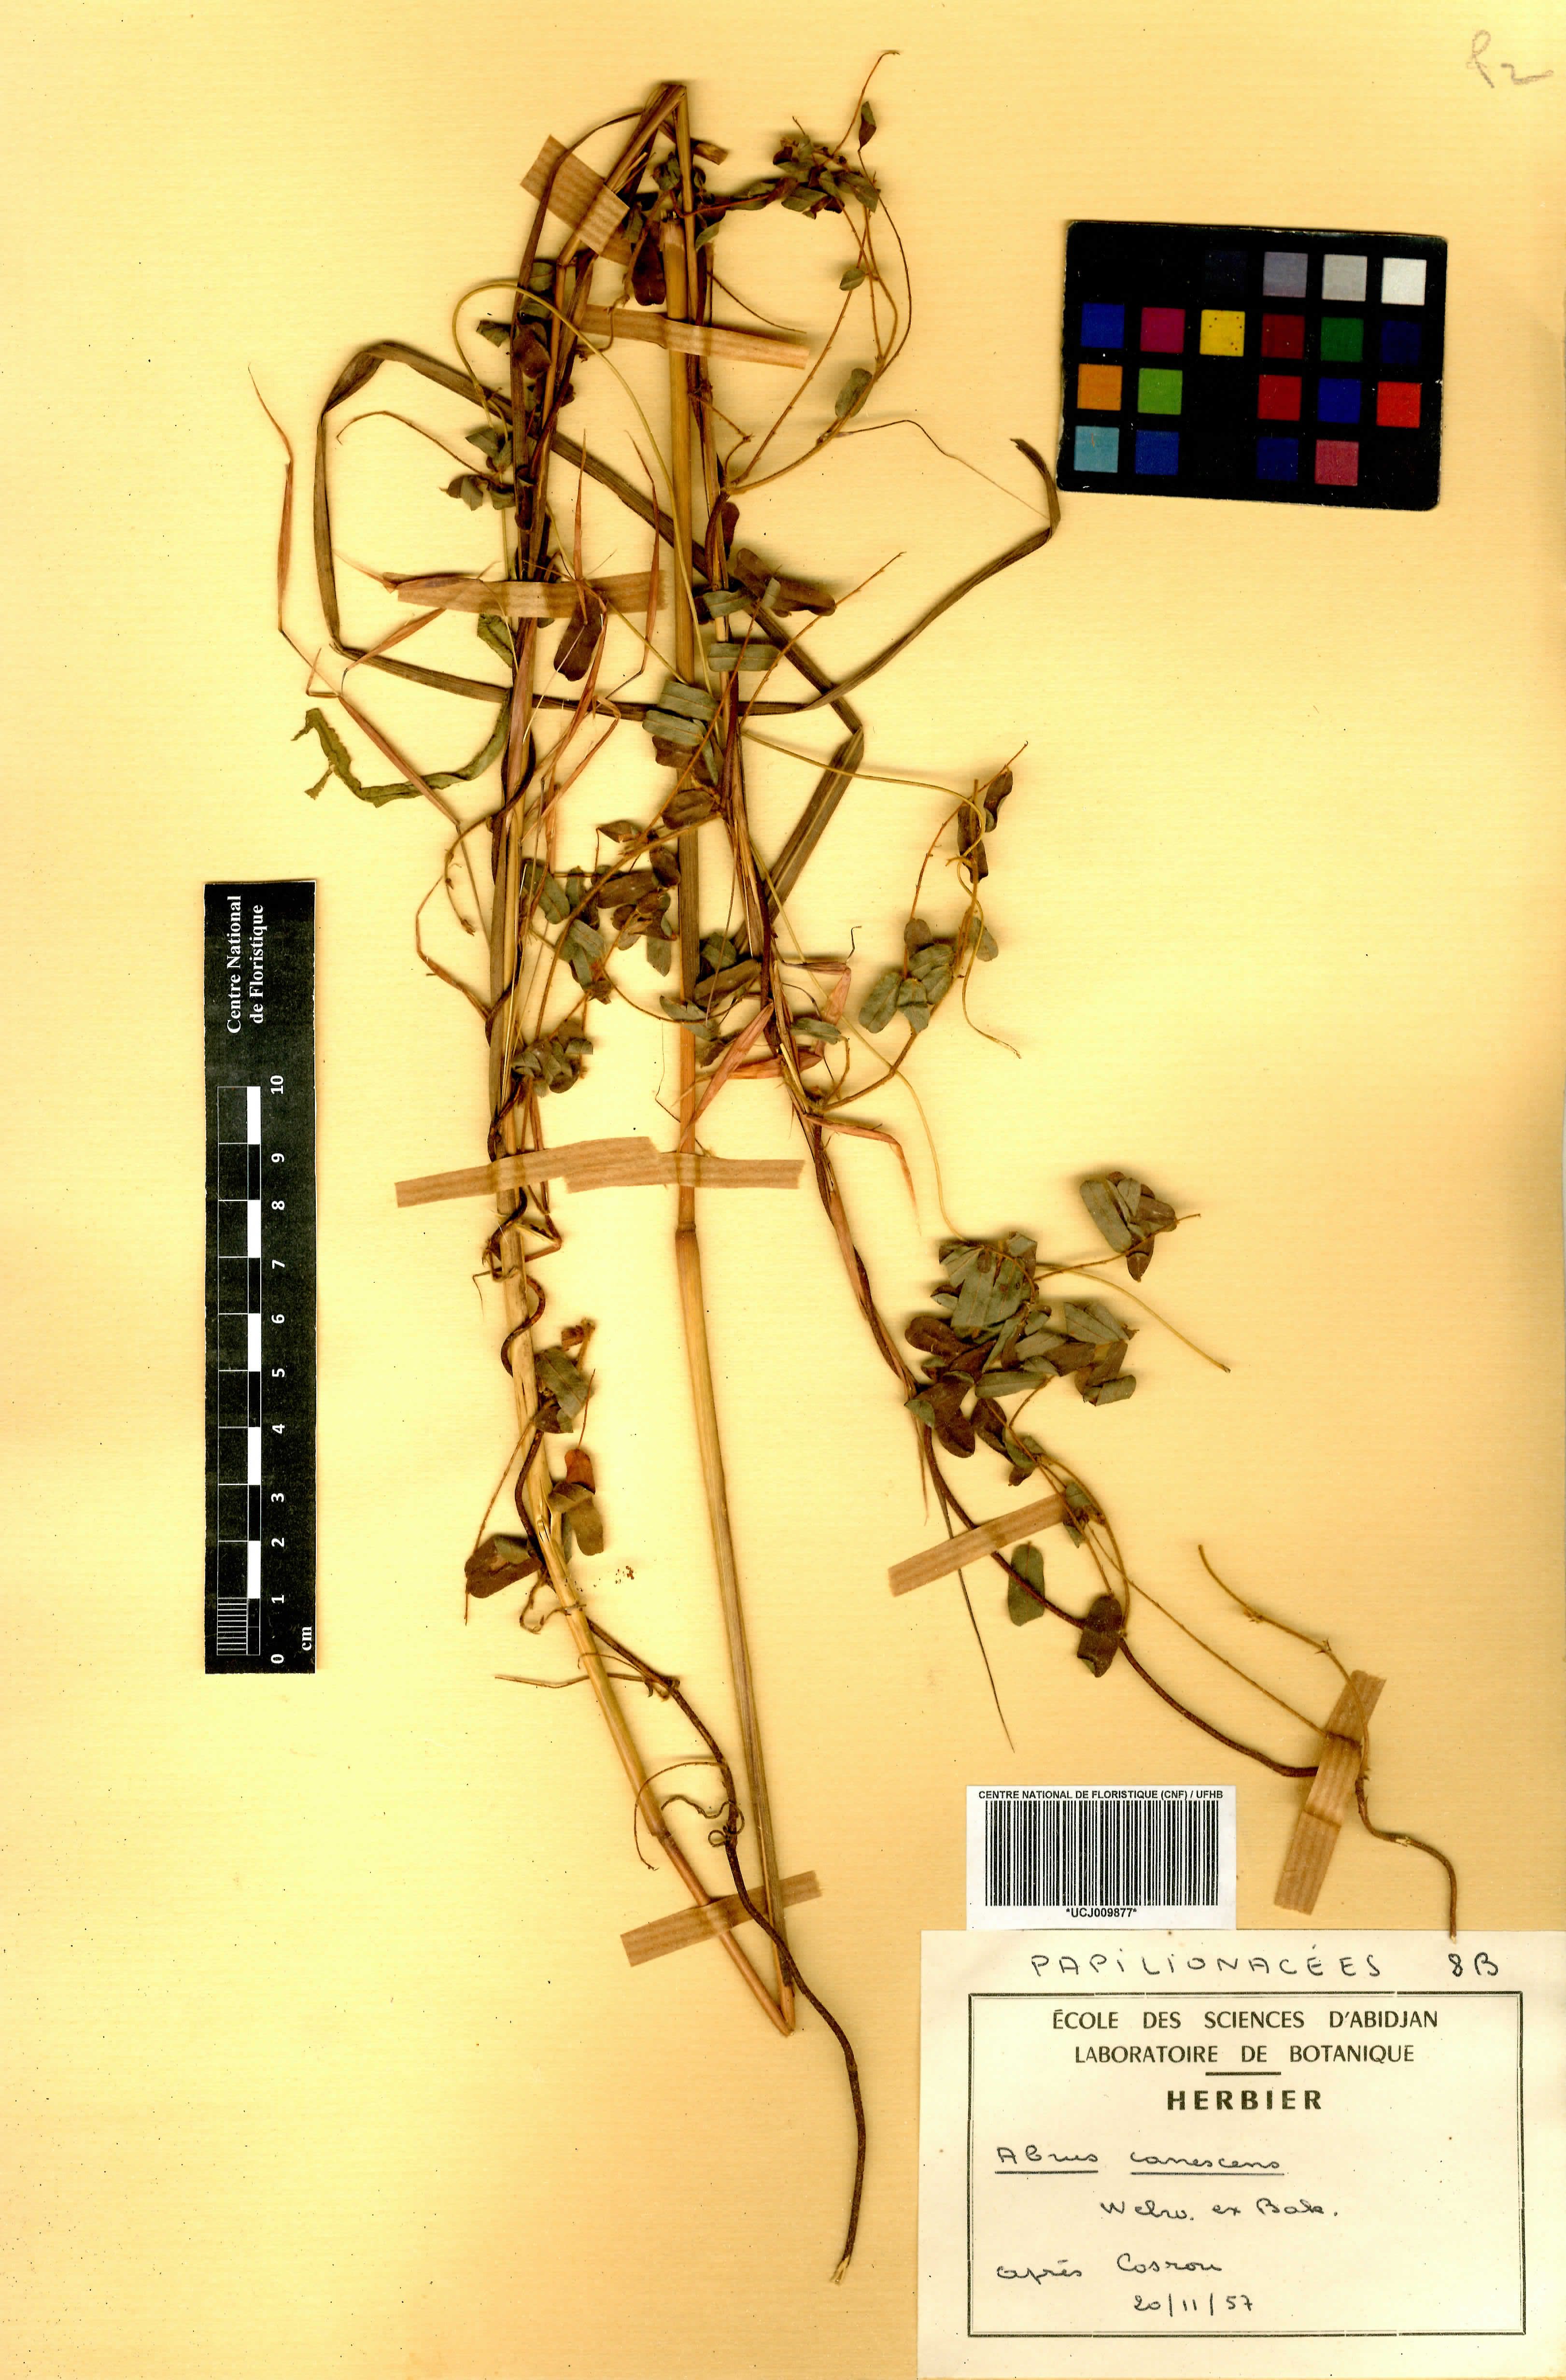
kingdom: Plantae
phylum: Tracheophyta
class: Magnoliopsida
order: Fabales
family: Fabaceae
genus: Abrus
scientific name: Abrus canescens
